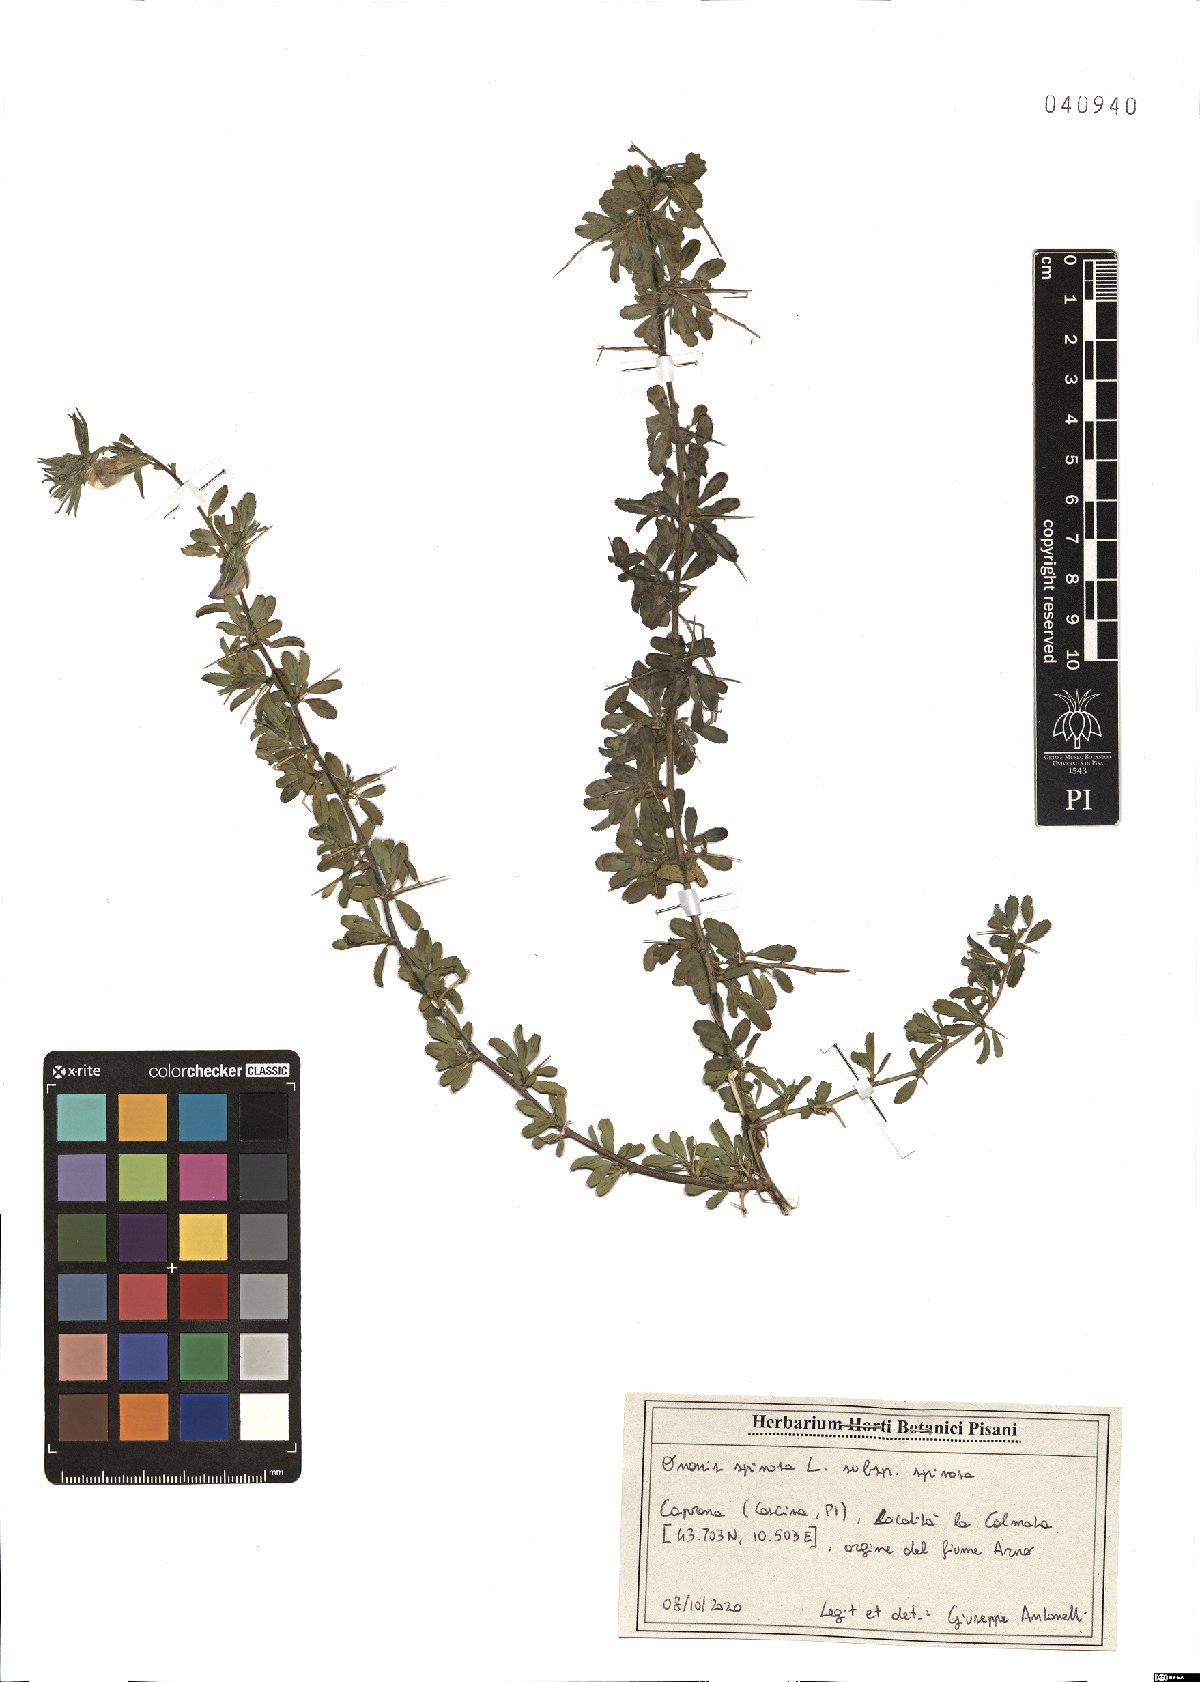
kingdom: Plantae
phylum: Tracheophyta
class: Magnoliopsida
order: Fabales
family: Fabaceae
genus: Ononis
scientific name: Ononis spinosa
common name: Spiny restharrow
